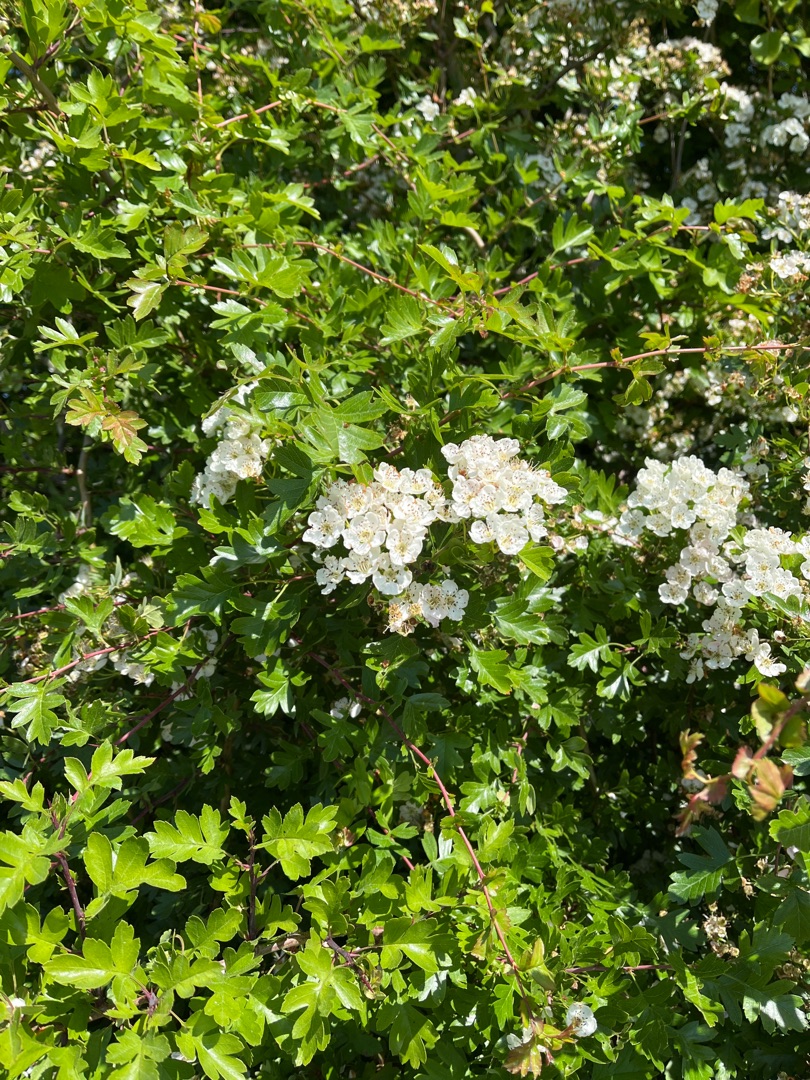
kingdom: Plantae
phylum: Tracheophyta
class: Magnoliopsida
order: Rosales
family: Rosaceae
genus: Crataegus
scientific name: Crataegus monogyna
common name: Engriflet hvidtjørn
